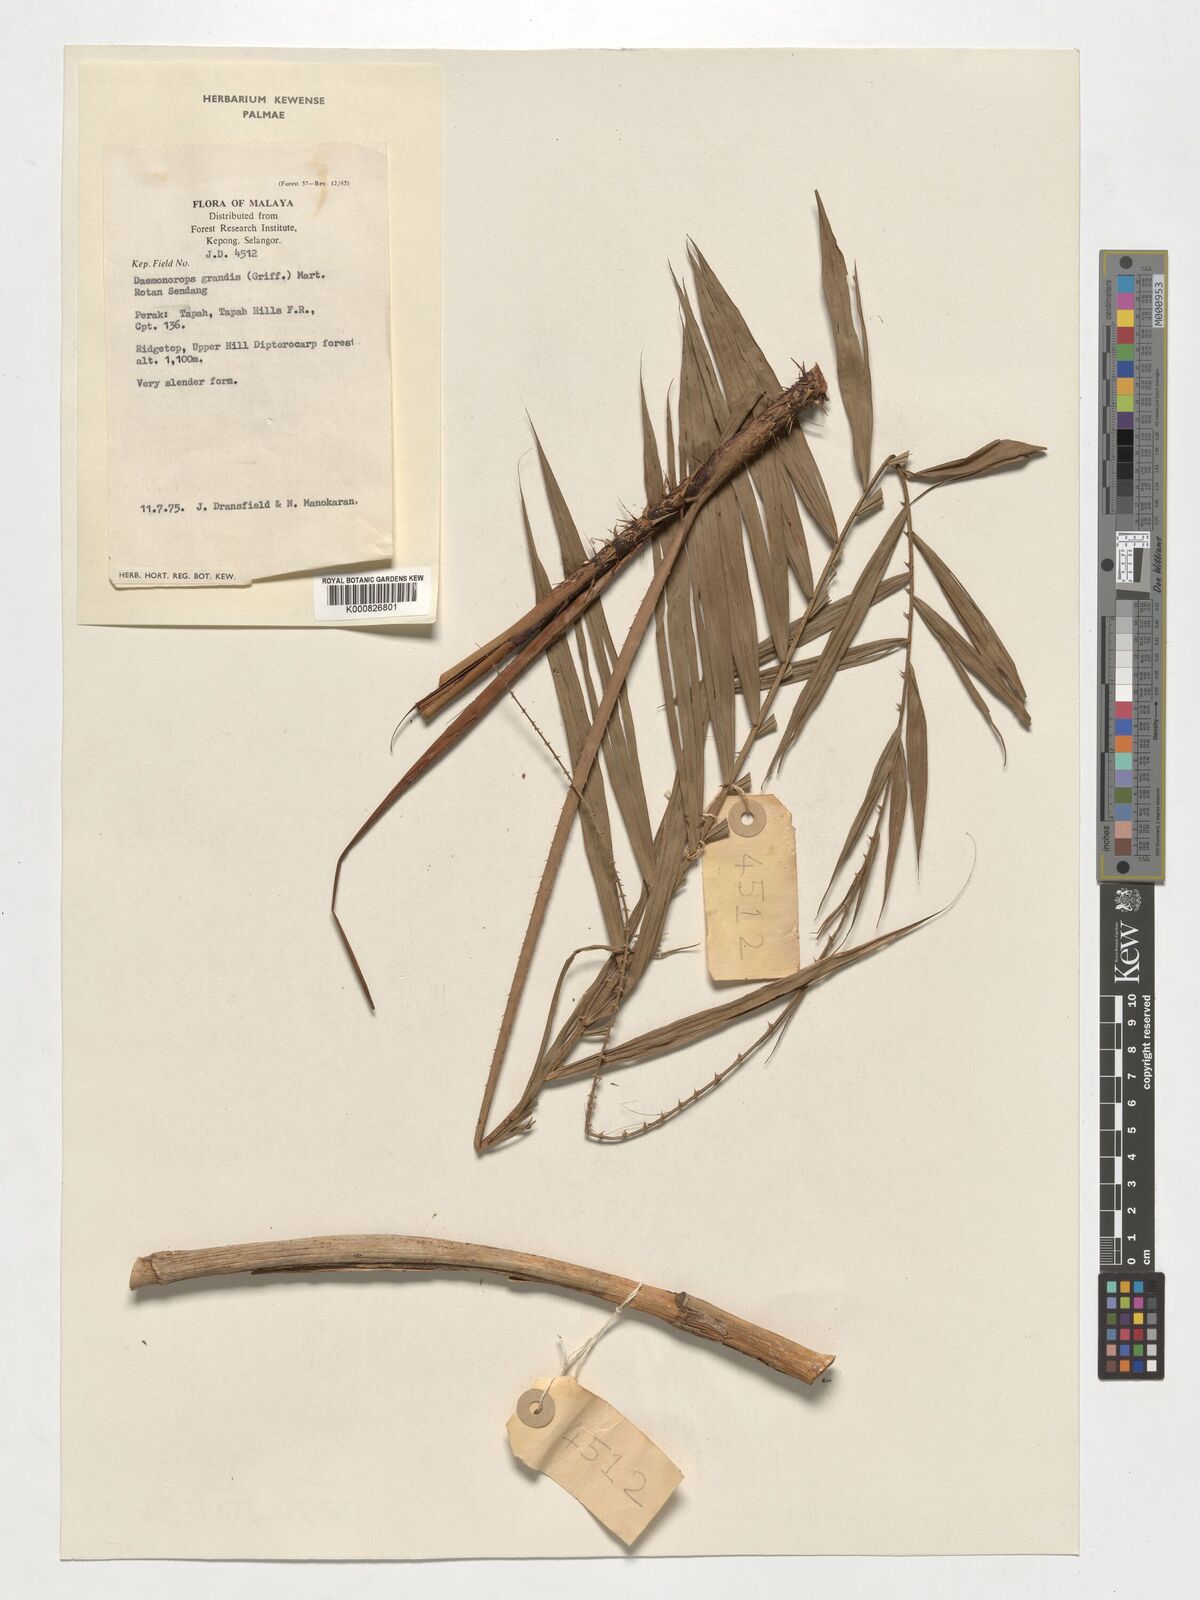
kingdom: Plantae
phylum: Tracheophyta
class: Liliopsida
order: Arecales
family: Arecaceae
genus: Calamus
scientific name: Calamus melanochaetes
